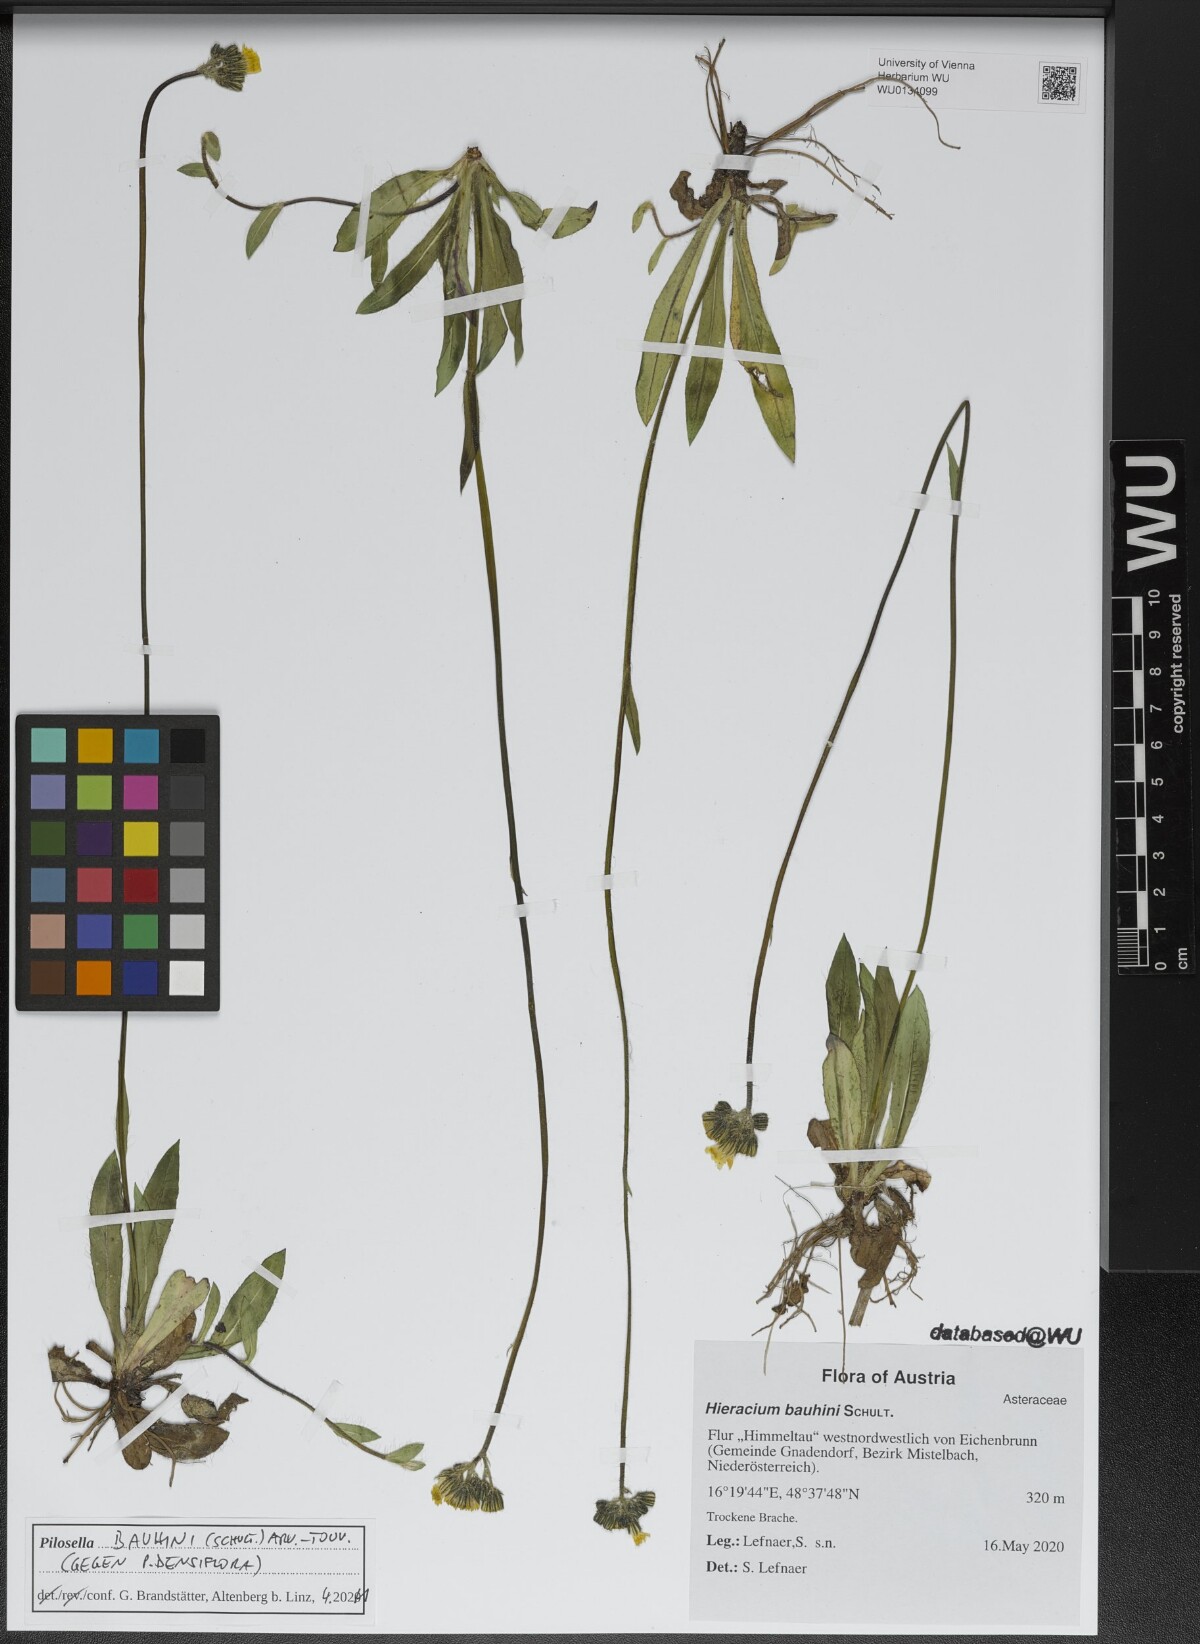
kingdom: Plantae
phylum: Tracheophyta
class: Magnoliopsida
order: Asterales
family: Asteraceae
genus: Pilosella
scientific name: Pilosella bauhini
